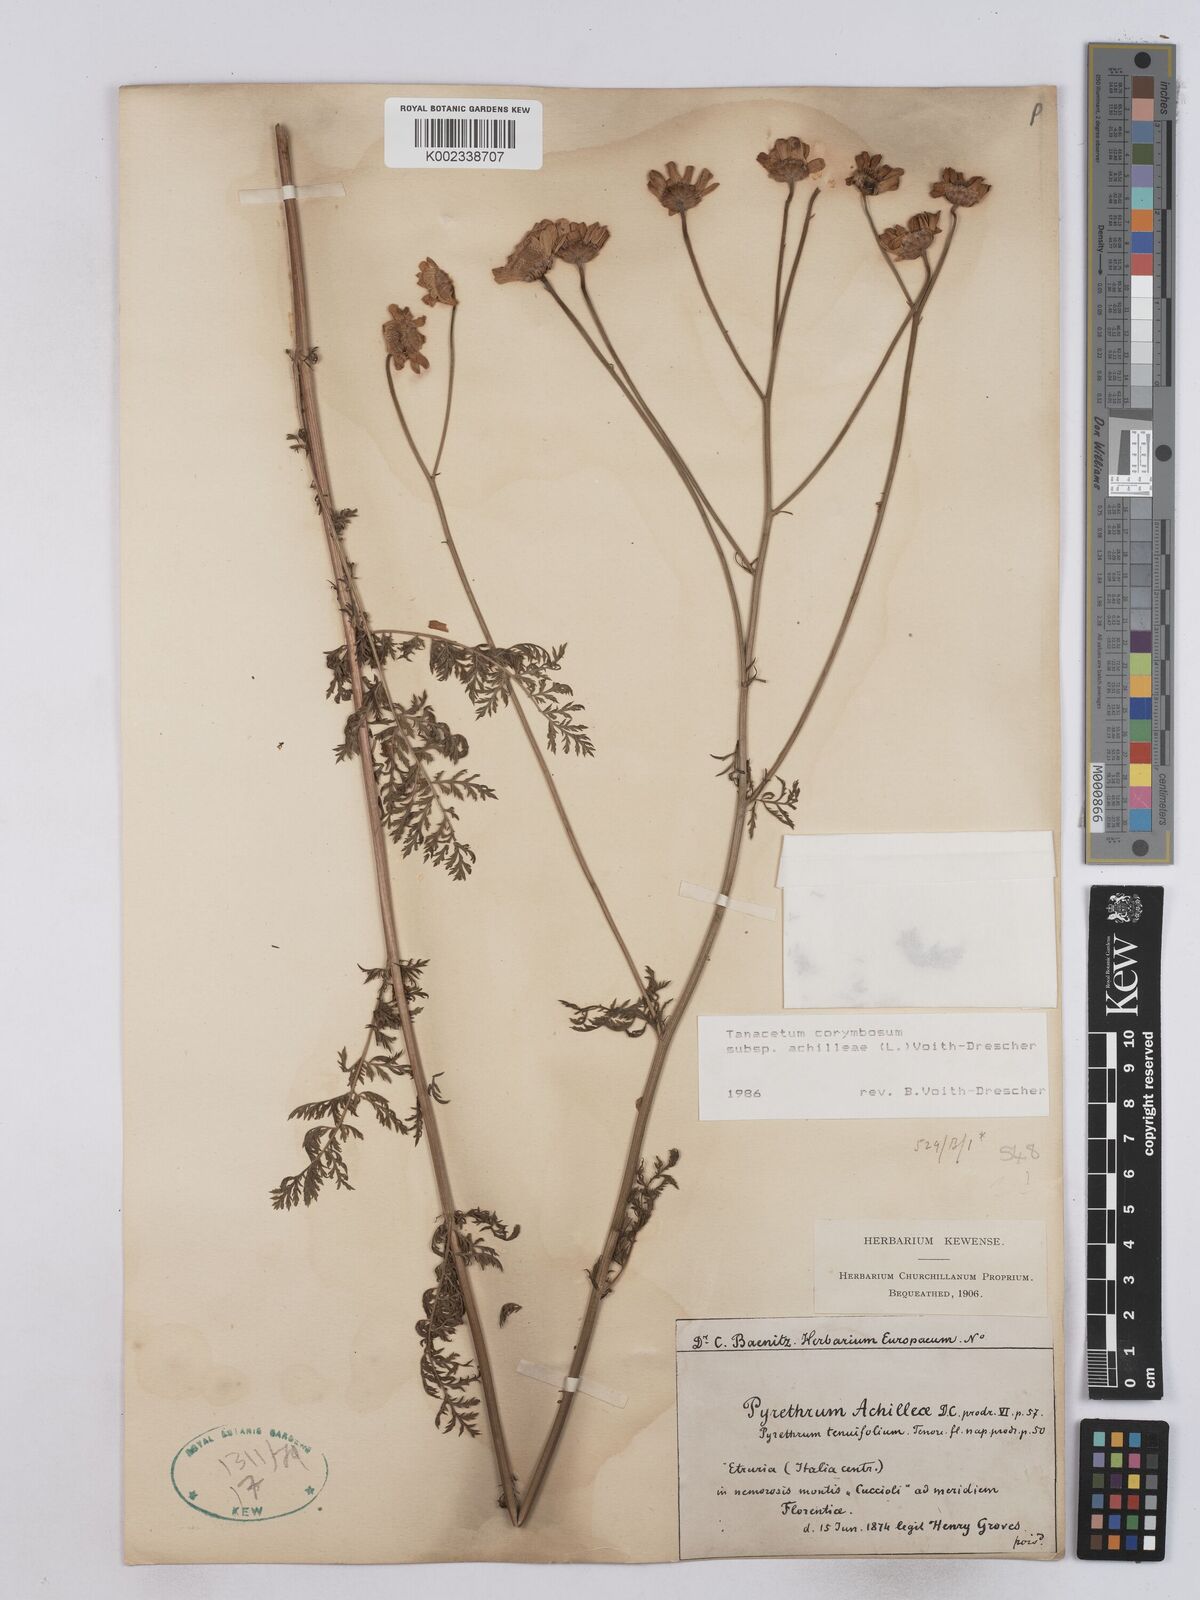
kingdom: Plantae
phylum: Tracheophyta
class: Magnoliopsida
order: Asterales
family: Asteraceae
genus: Tanacetum
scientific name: Tanacetum corymbosum
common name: Scentless feverfew
